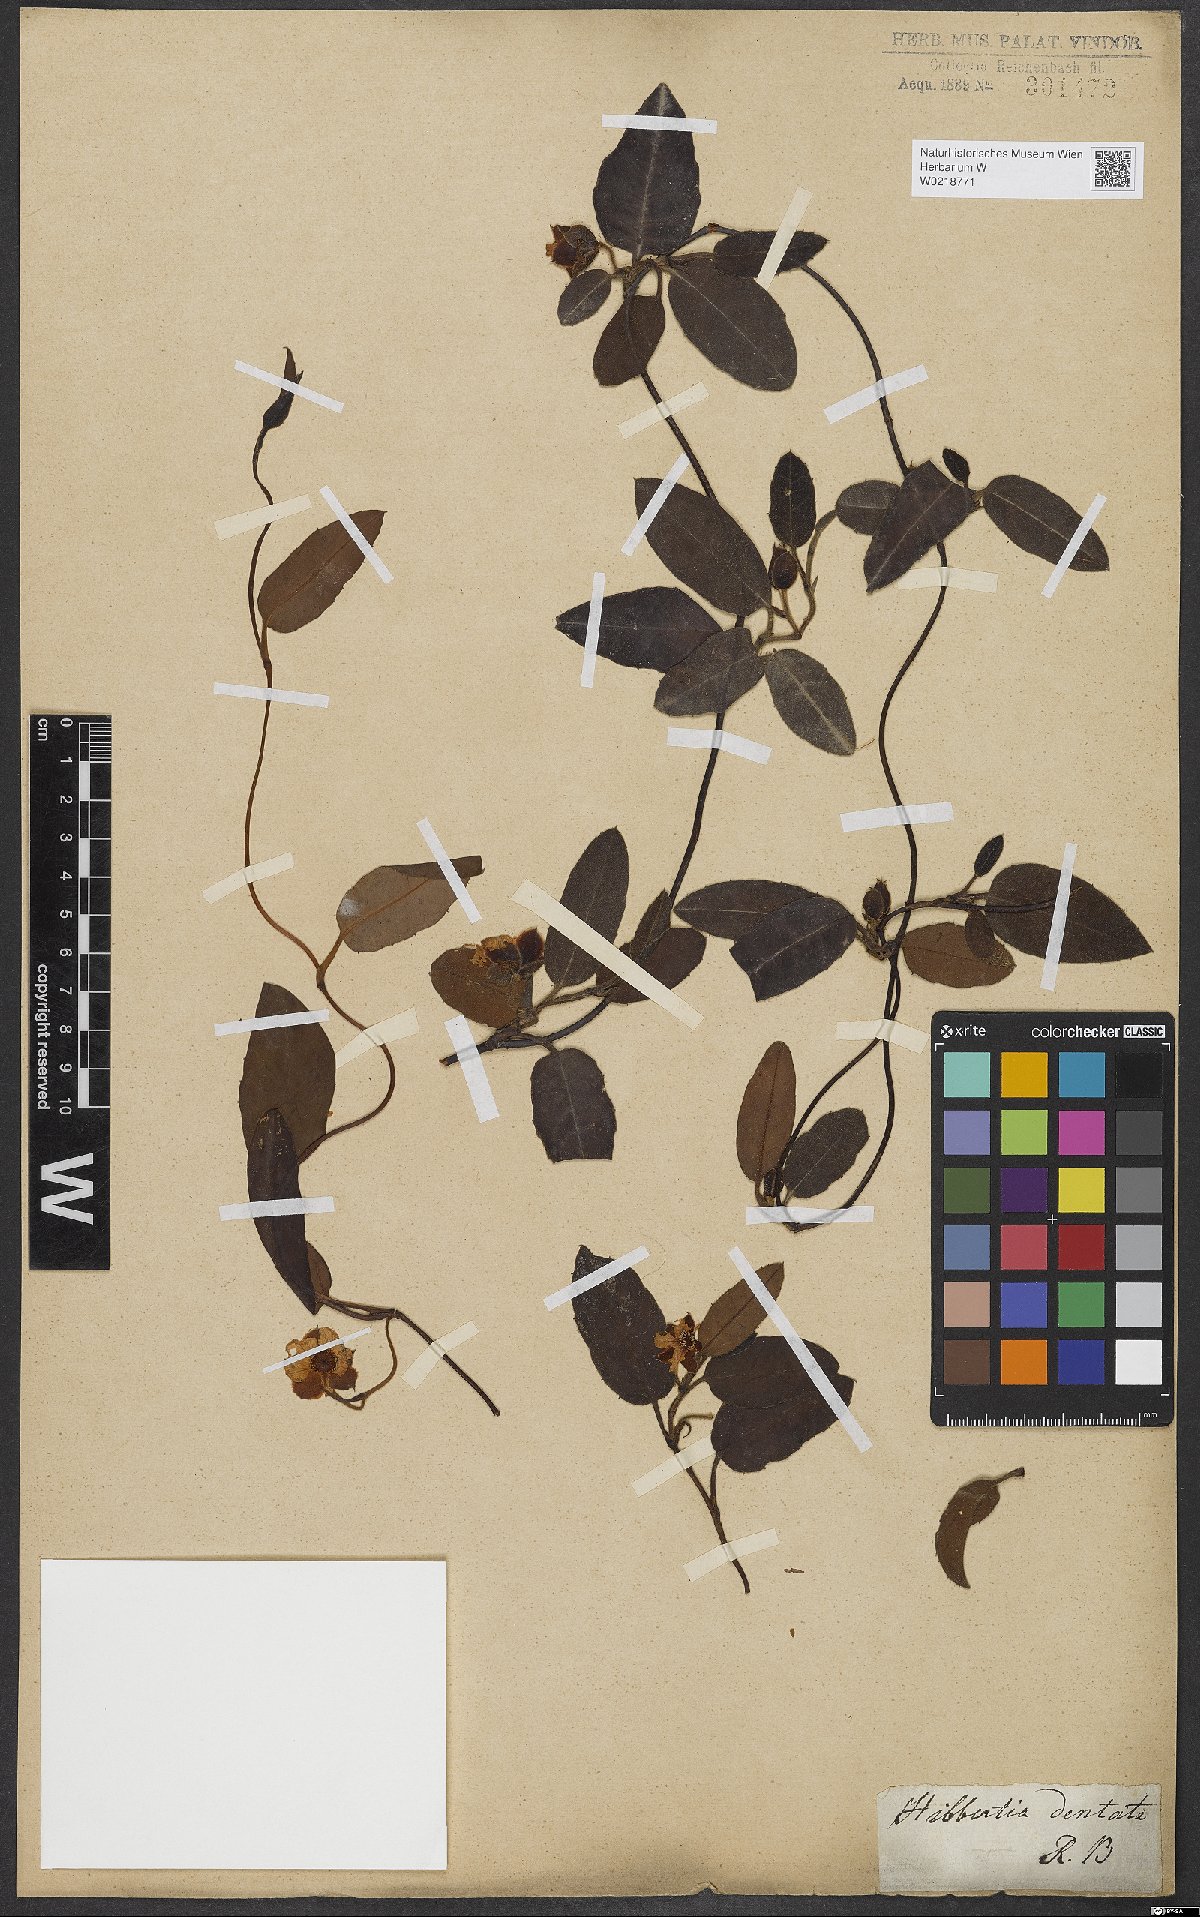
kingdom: Plantae
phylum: Tracheophyta
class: Magnoliopsida
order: Dilleniales
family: Dilleniaceae
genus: Hibbertia
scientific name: Hibbertia dentata
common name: Trailing guinea-flower
